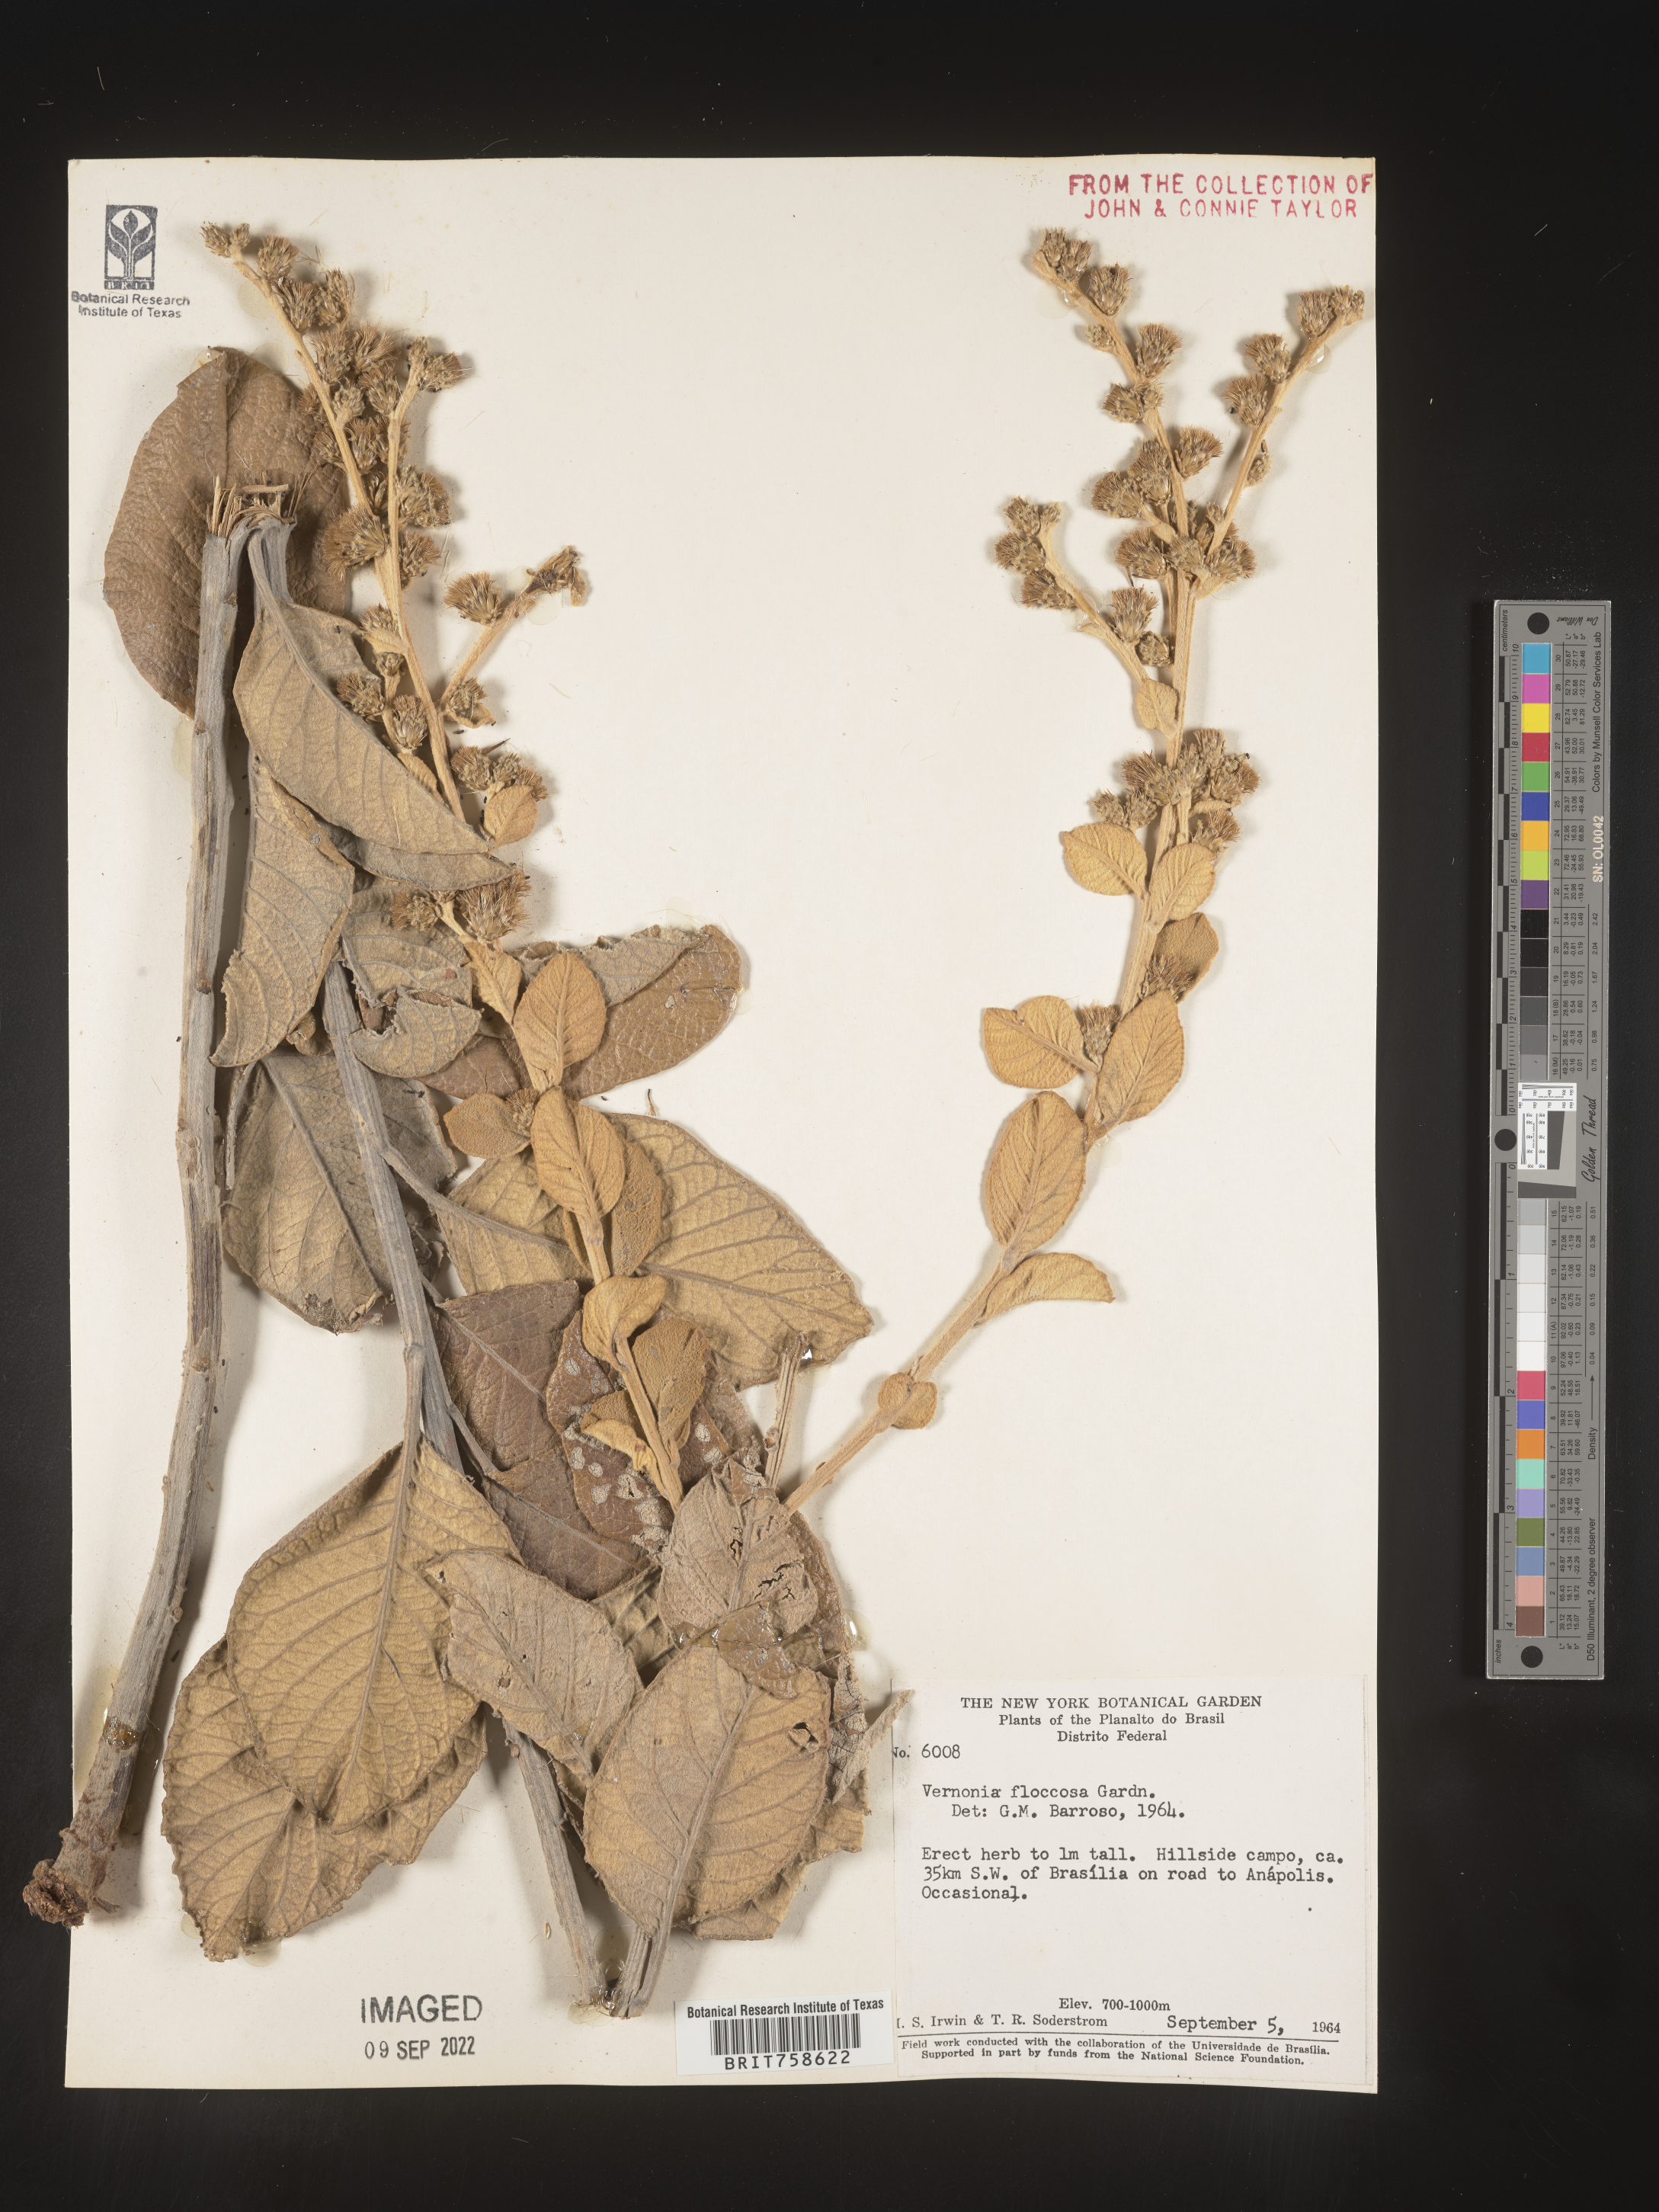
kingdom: Plantae
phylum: Tracheophyta
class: Magnoliopsida
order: Asterales
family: Asteraceae
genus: Vernonia
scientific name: Vernonia
